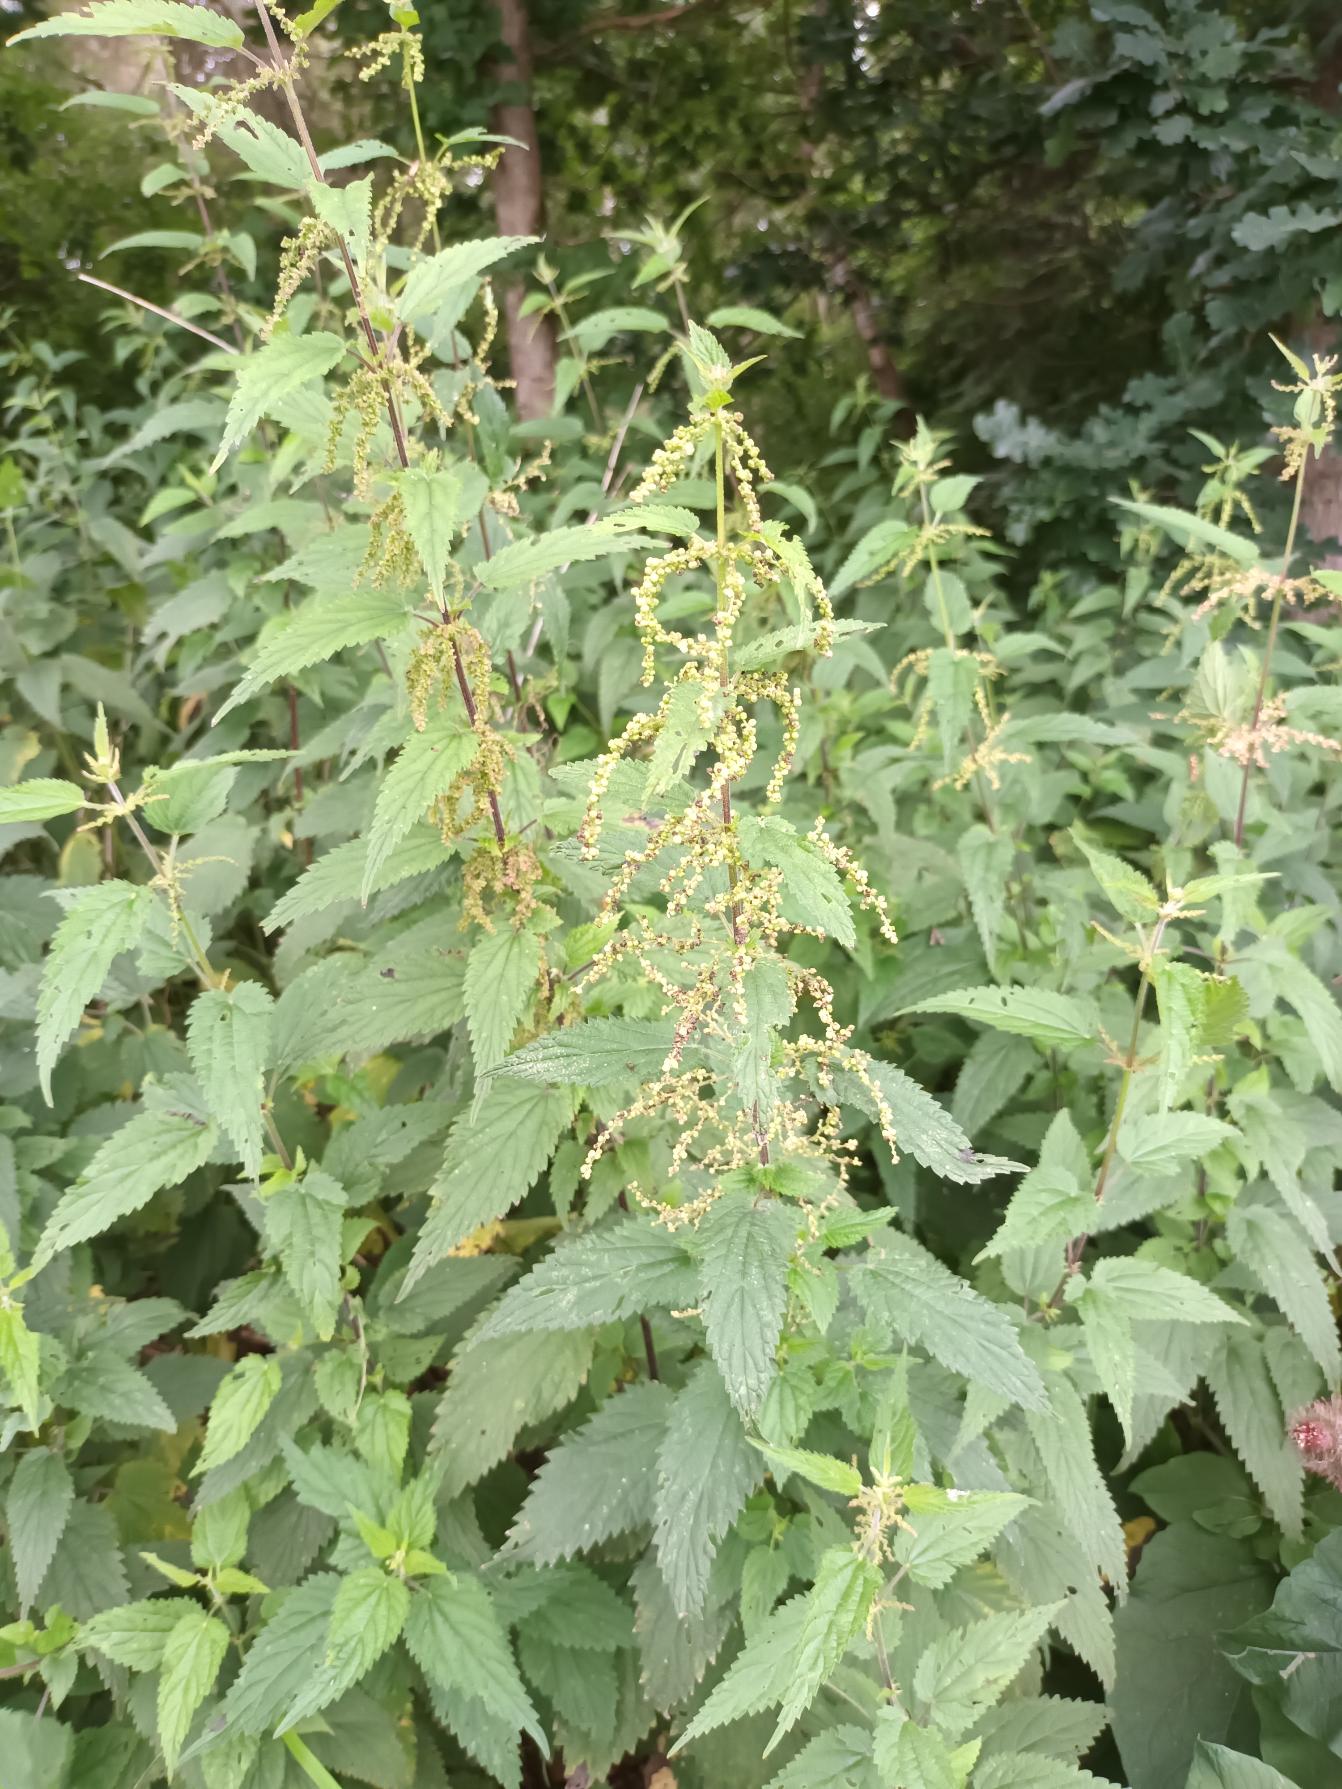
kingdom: Plantae
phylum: Tracheophyta
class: Magnoliopsida
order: Rosales
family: Urticaceae
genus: Urtica
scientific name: Urtica dioica
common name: Stor nælde
